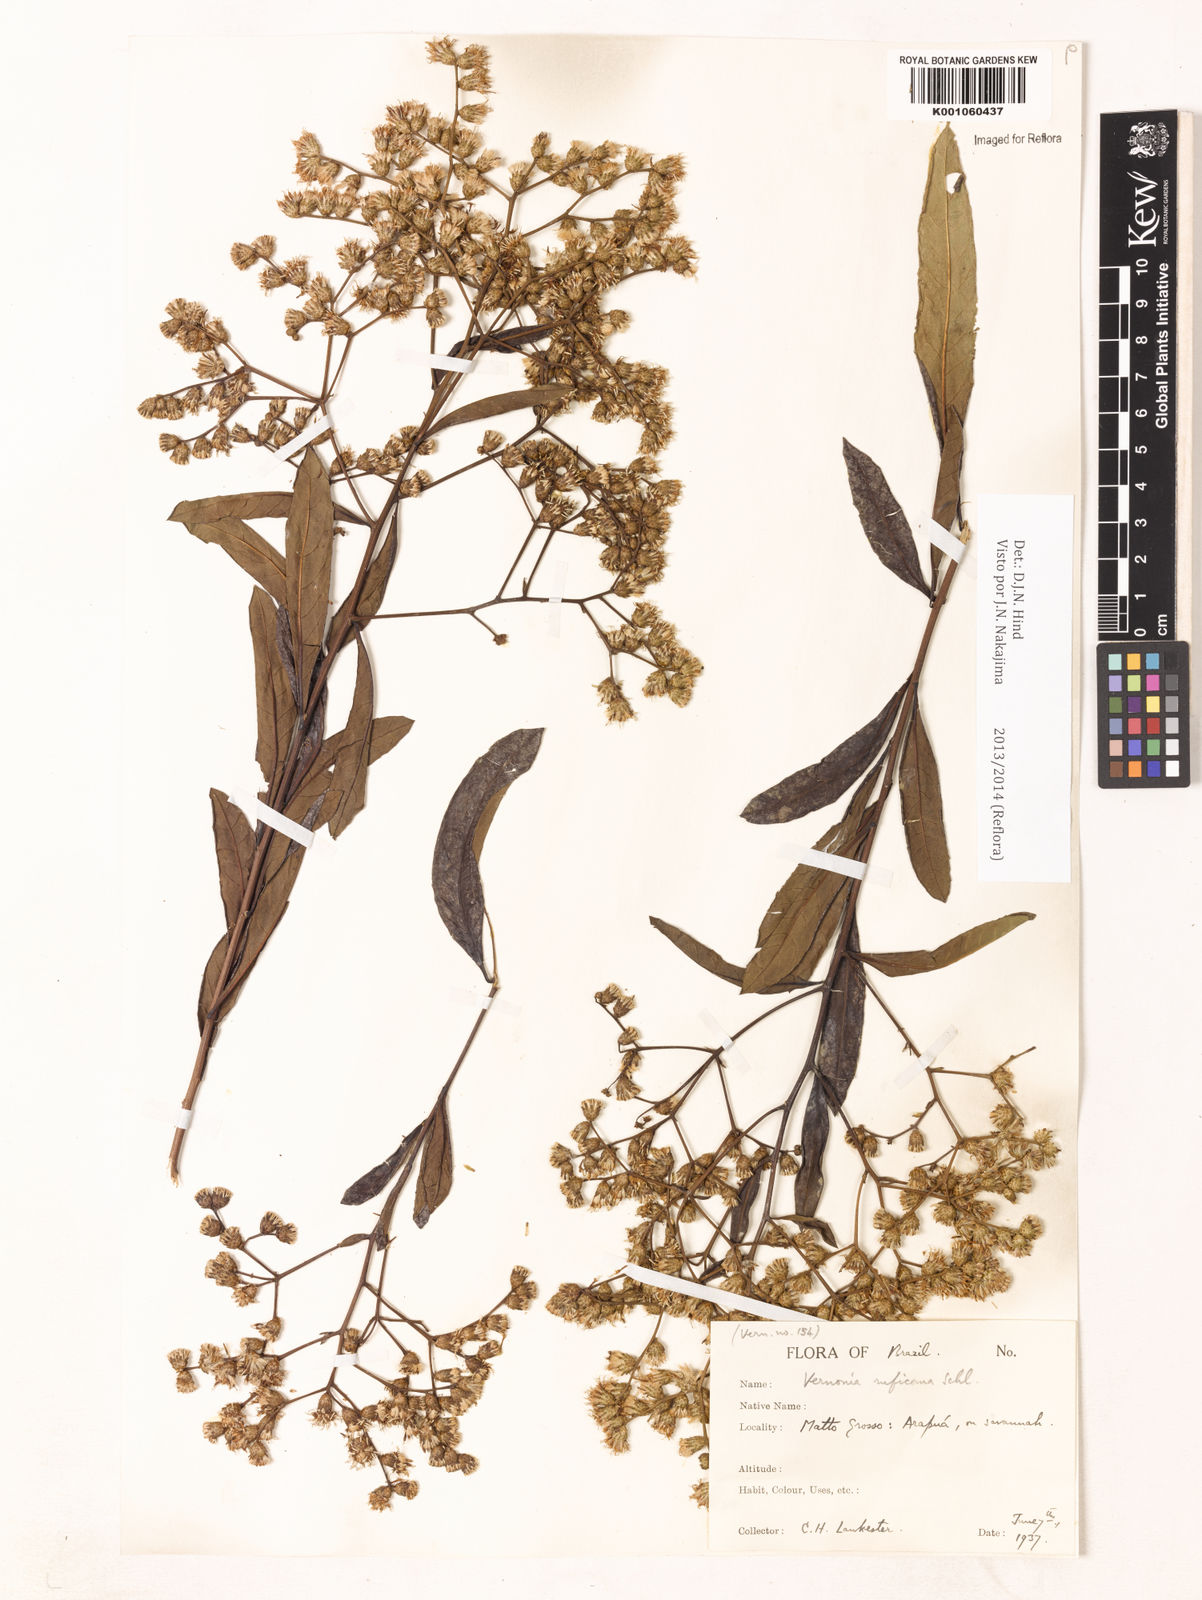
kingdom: Plantae
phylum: Tracheophyta
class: Magnoliopsida
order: Asterales
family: Asteraceae
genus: Vernonia
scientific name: Vernonia
